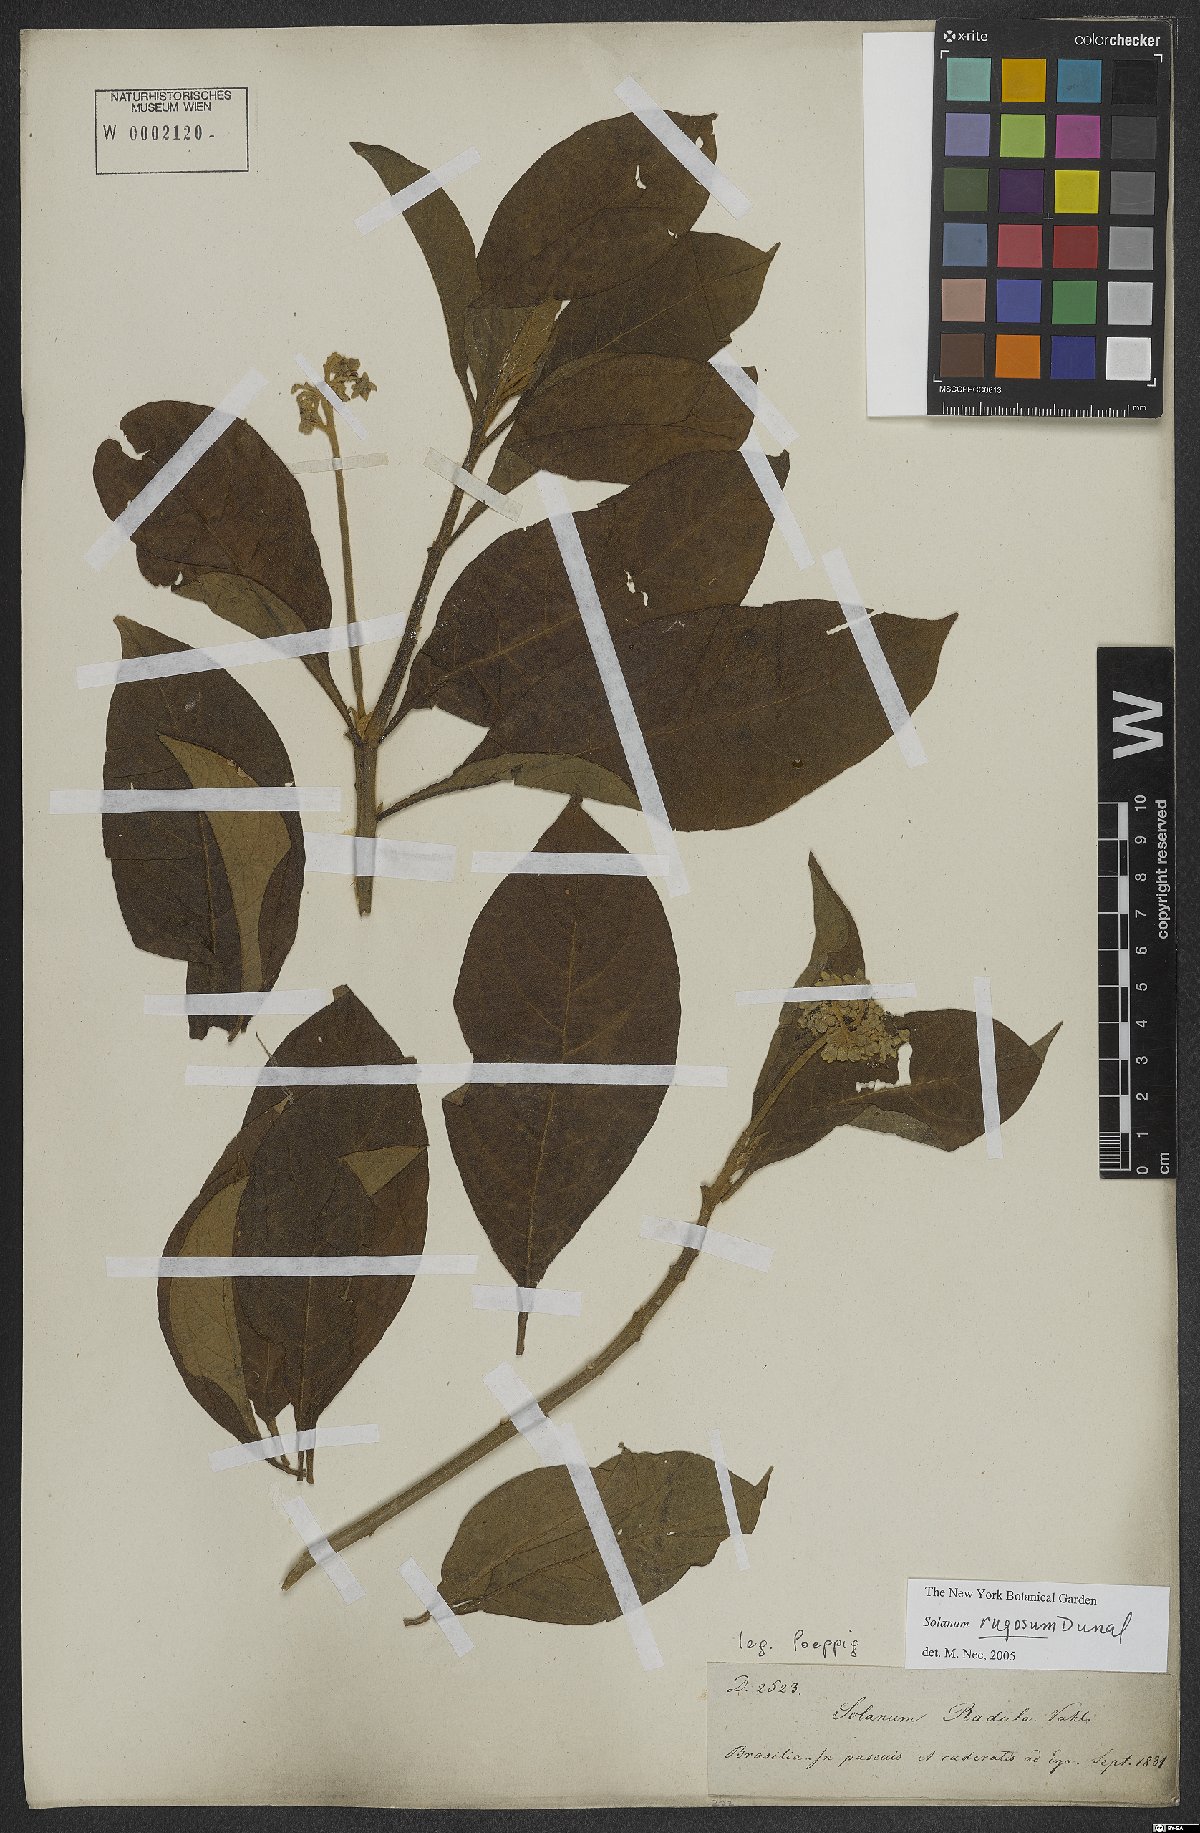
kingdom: Plantae
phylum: Tracheophyta
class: Magnoliopsida
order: Solanales
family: Solanaceae
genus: Solanum
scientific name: Solanum rugosum
